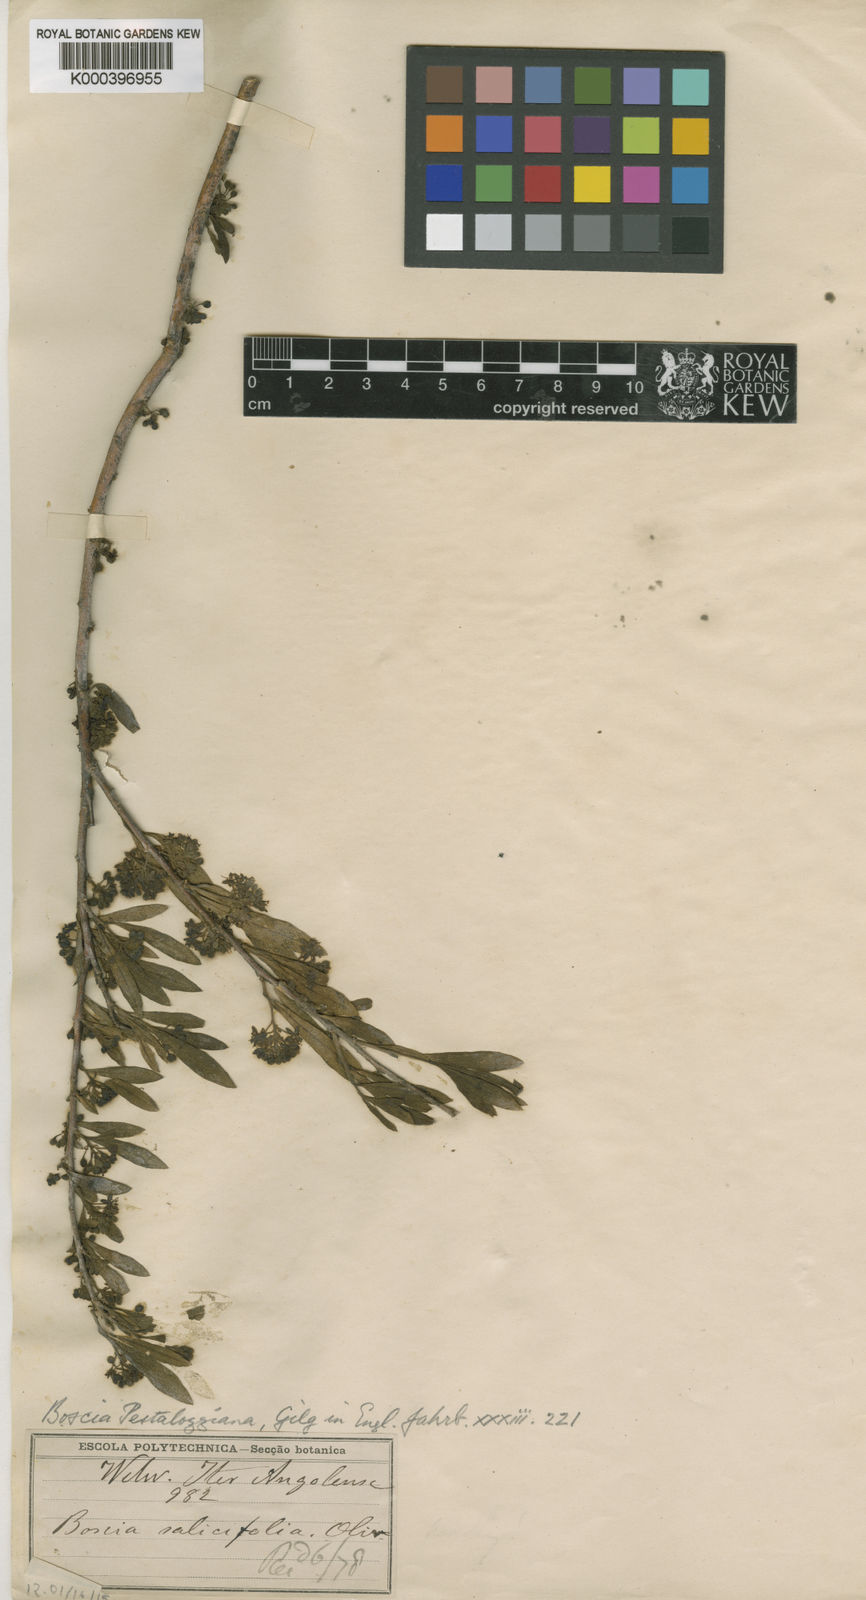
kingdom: Plantae
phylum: Tracheophyta
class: Magnoliopsida
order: Brassicales
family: Capparaceae
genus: Boscia
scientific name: Boscia pestalozziana
